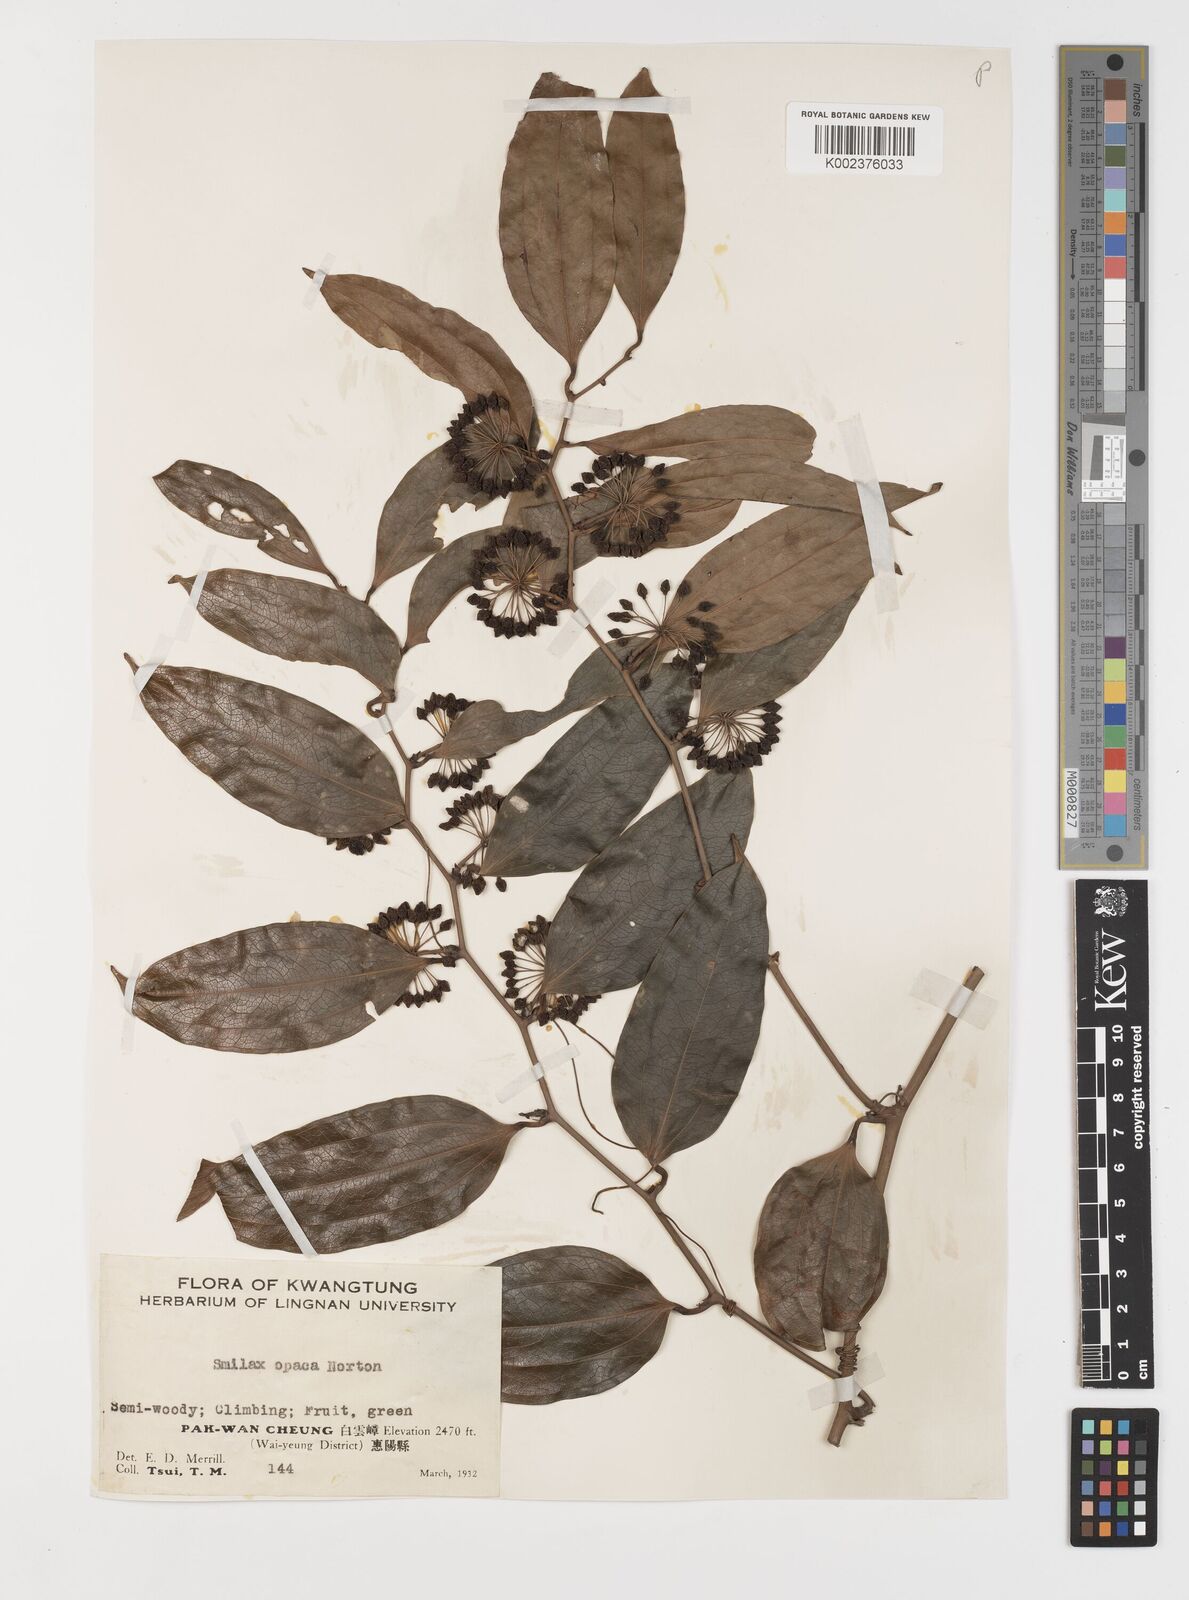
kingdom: Plantae
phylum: Tracheophyta
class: Liliopsida
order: Liliales
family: Smilacaceae
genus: Smilax
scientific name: Smilax laevis
